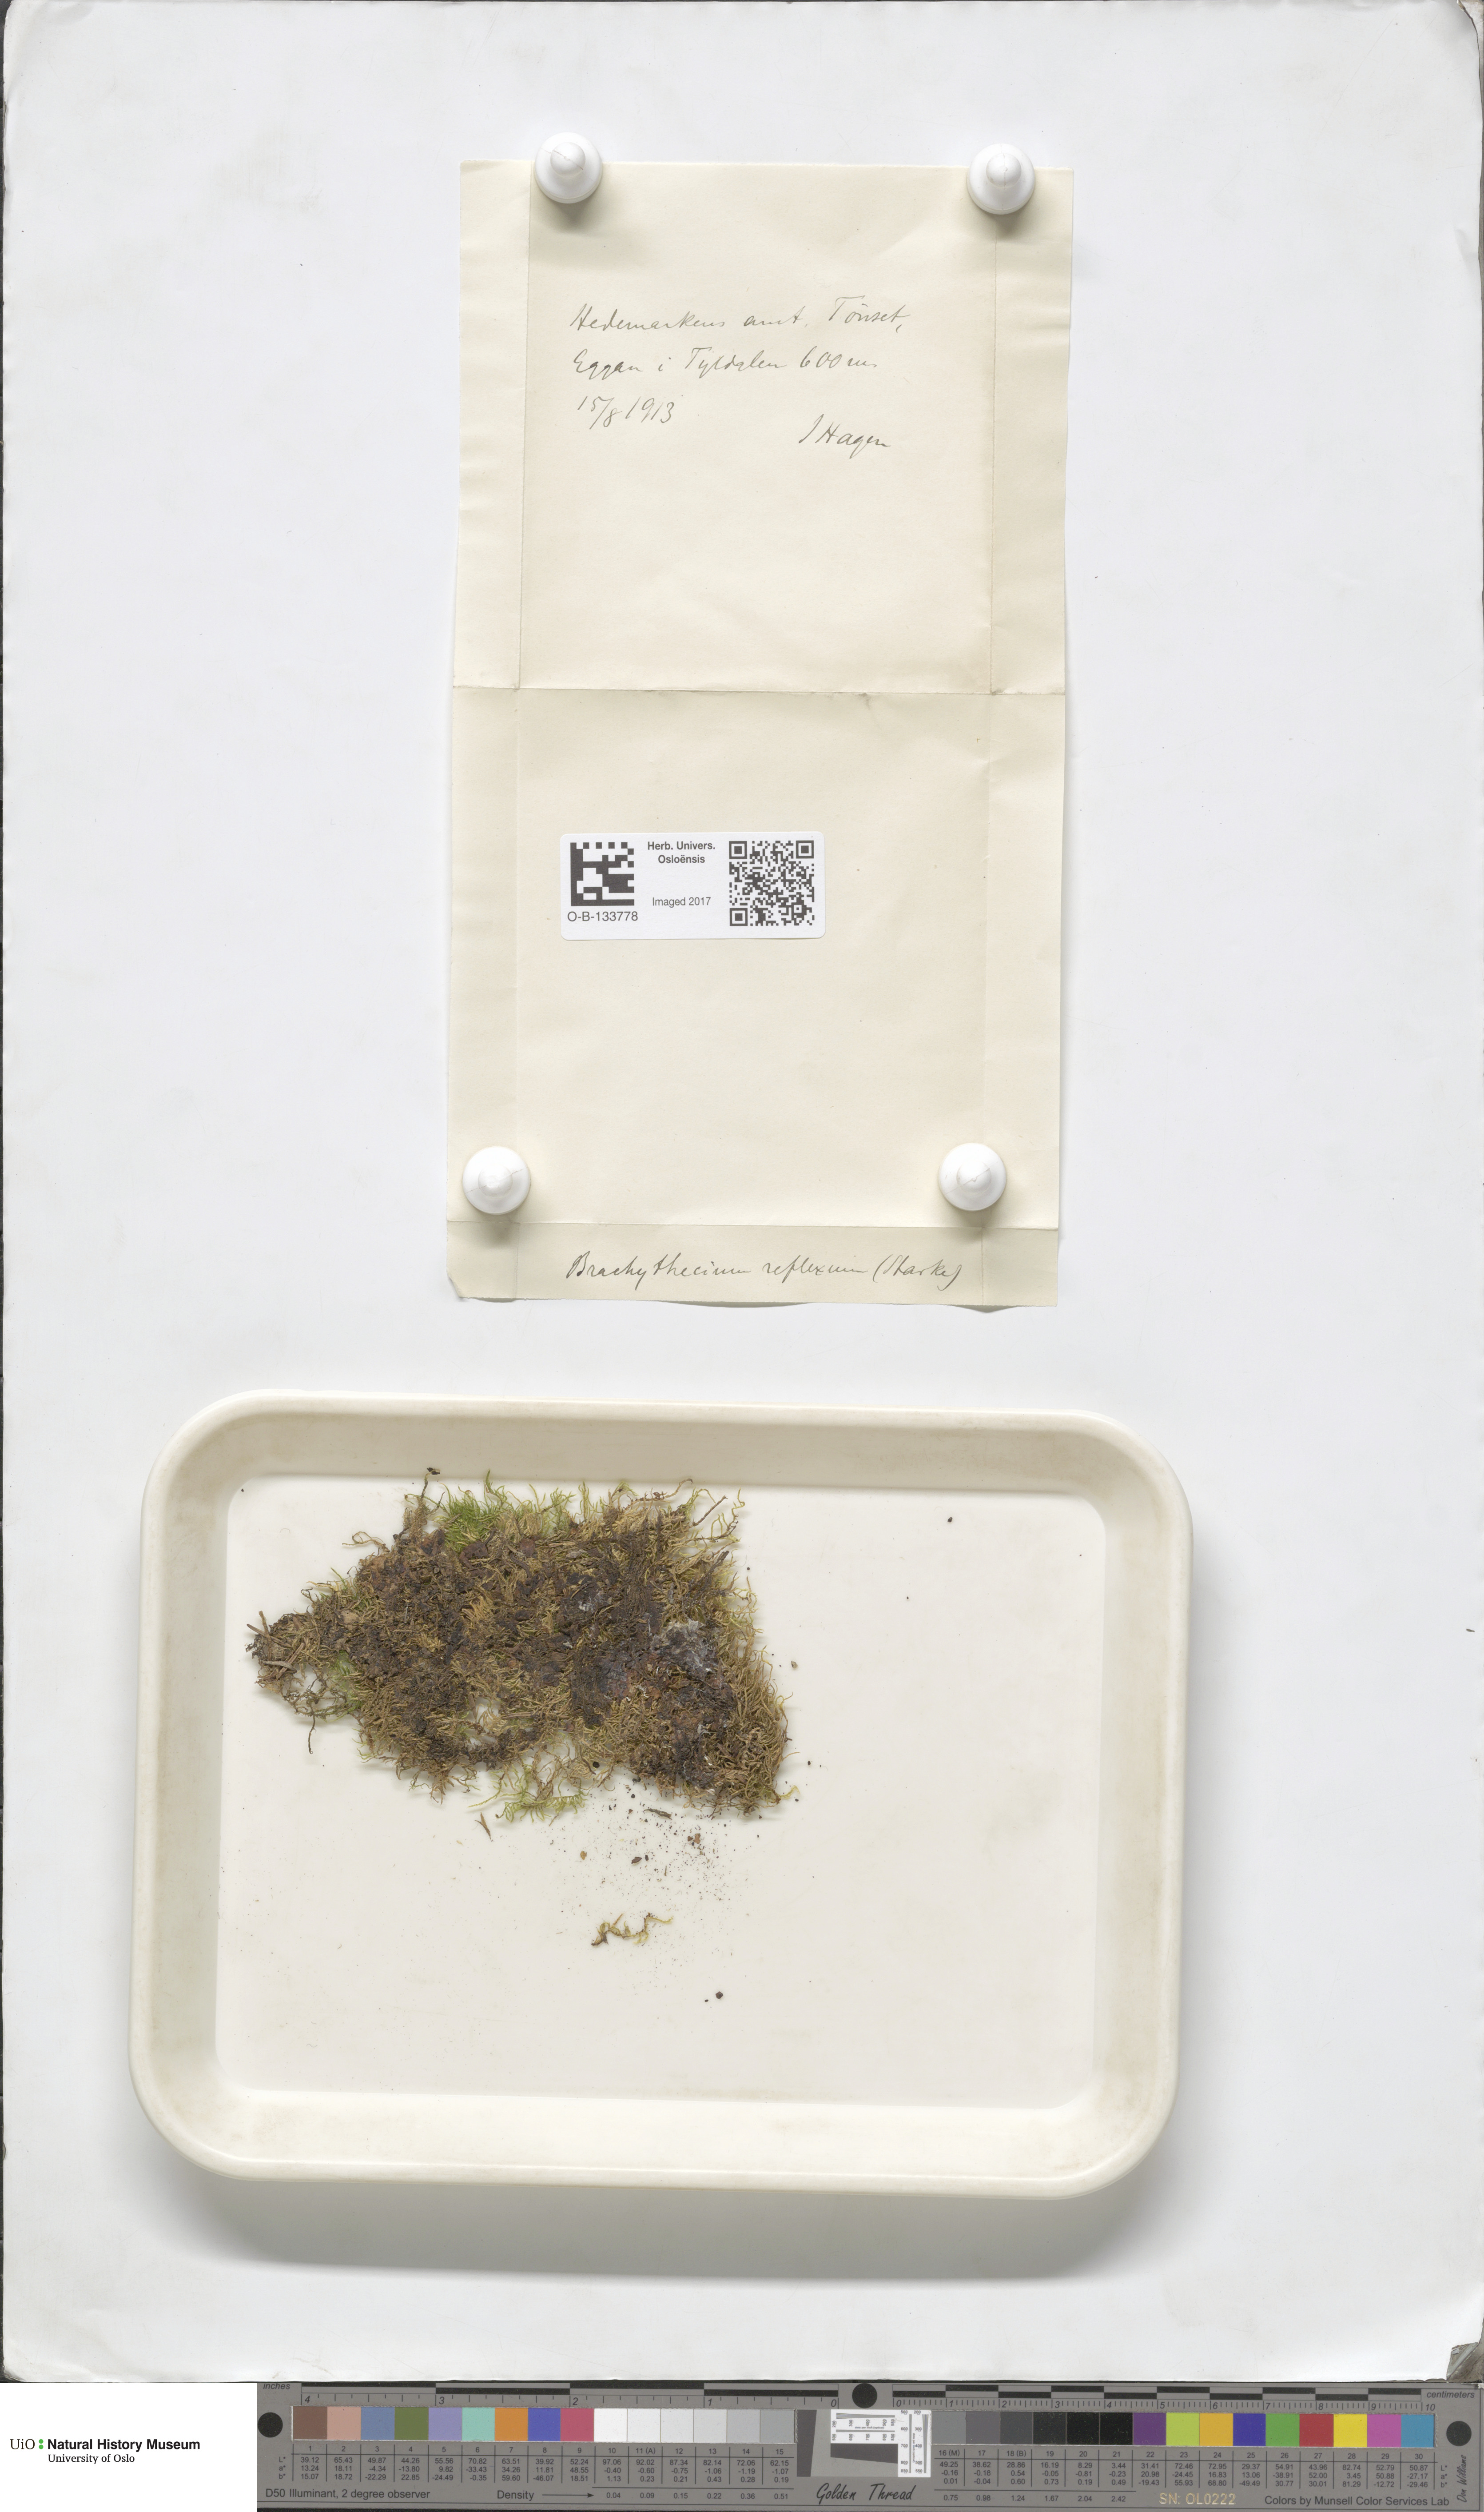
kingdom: Plantae
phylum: Bryophyta
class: Bryopsida
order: Hypnales
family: Brachytheciaceae
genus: Sciuro-hypnum
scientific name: Sciuro-hypnum reflexum
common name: Reflexed feather-moss
